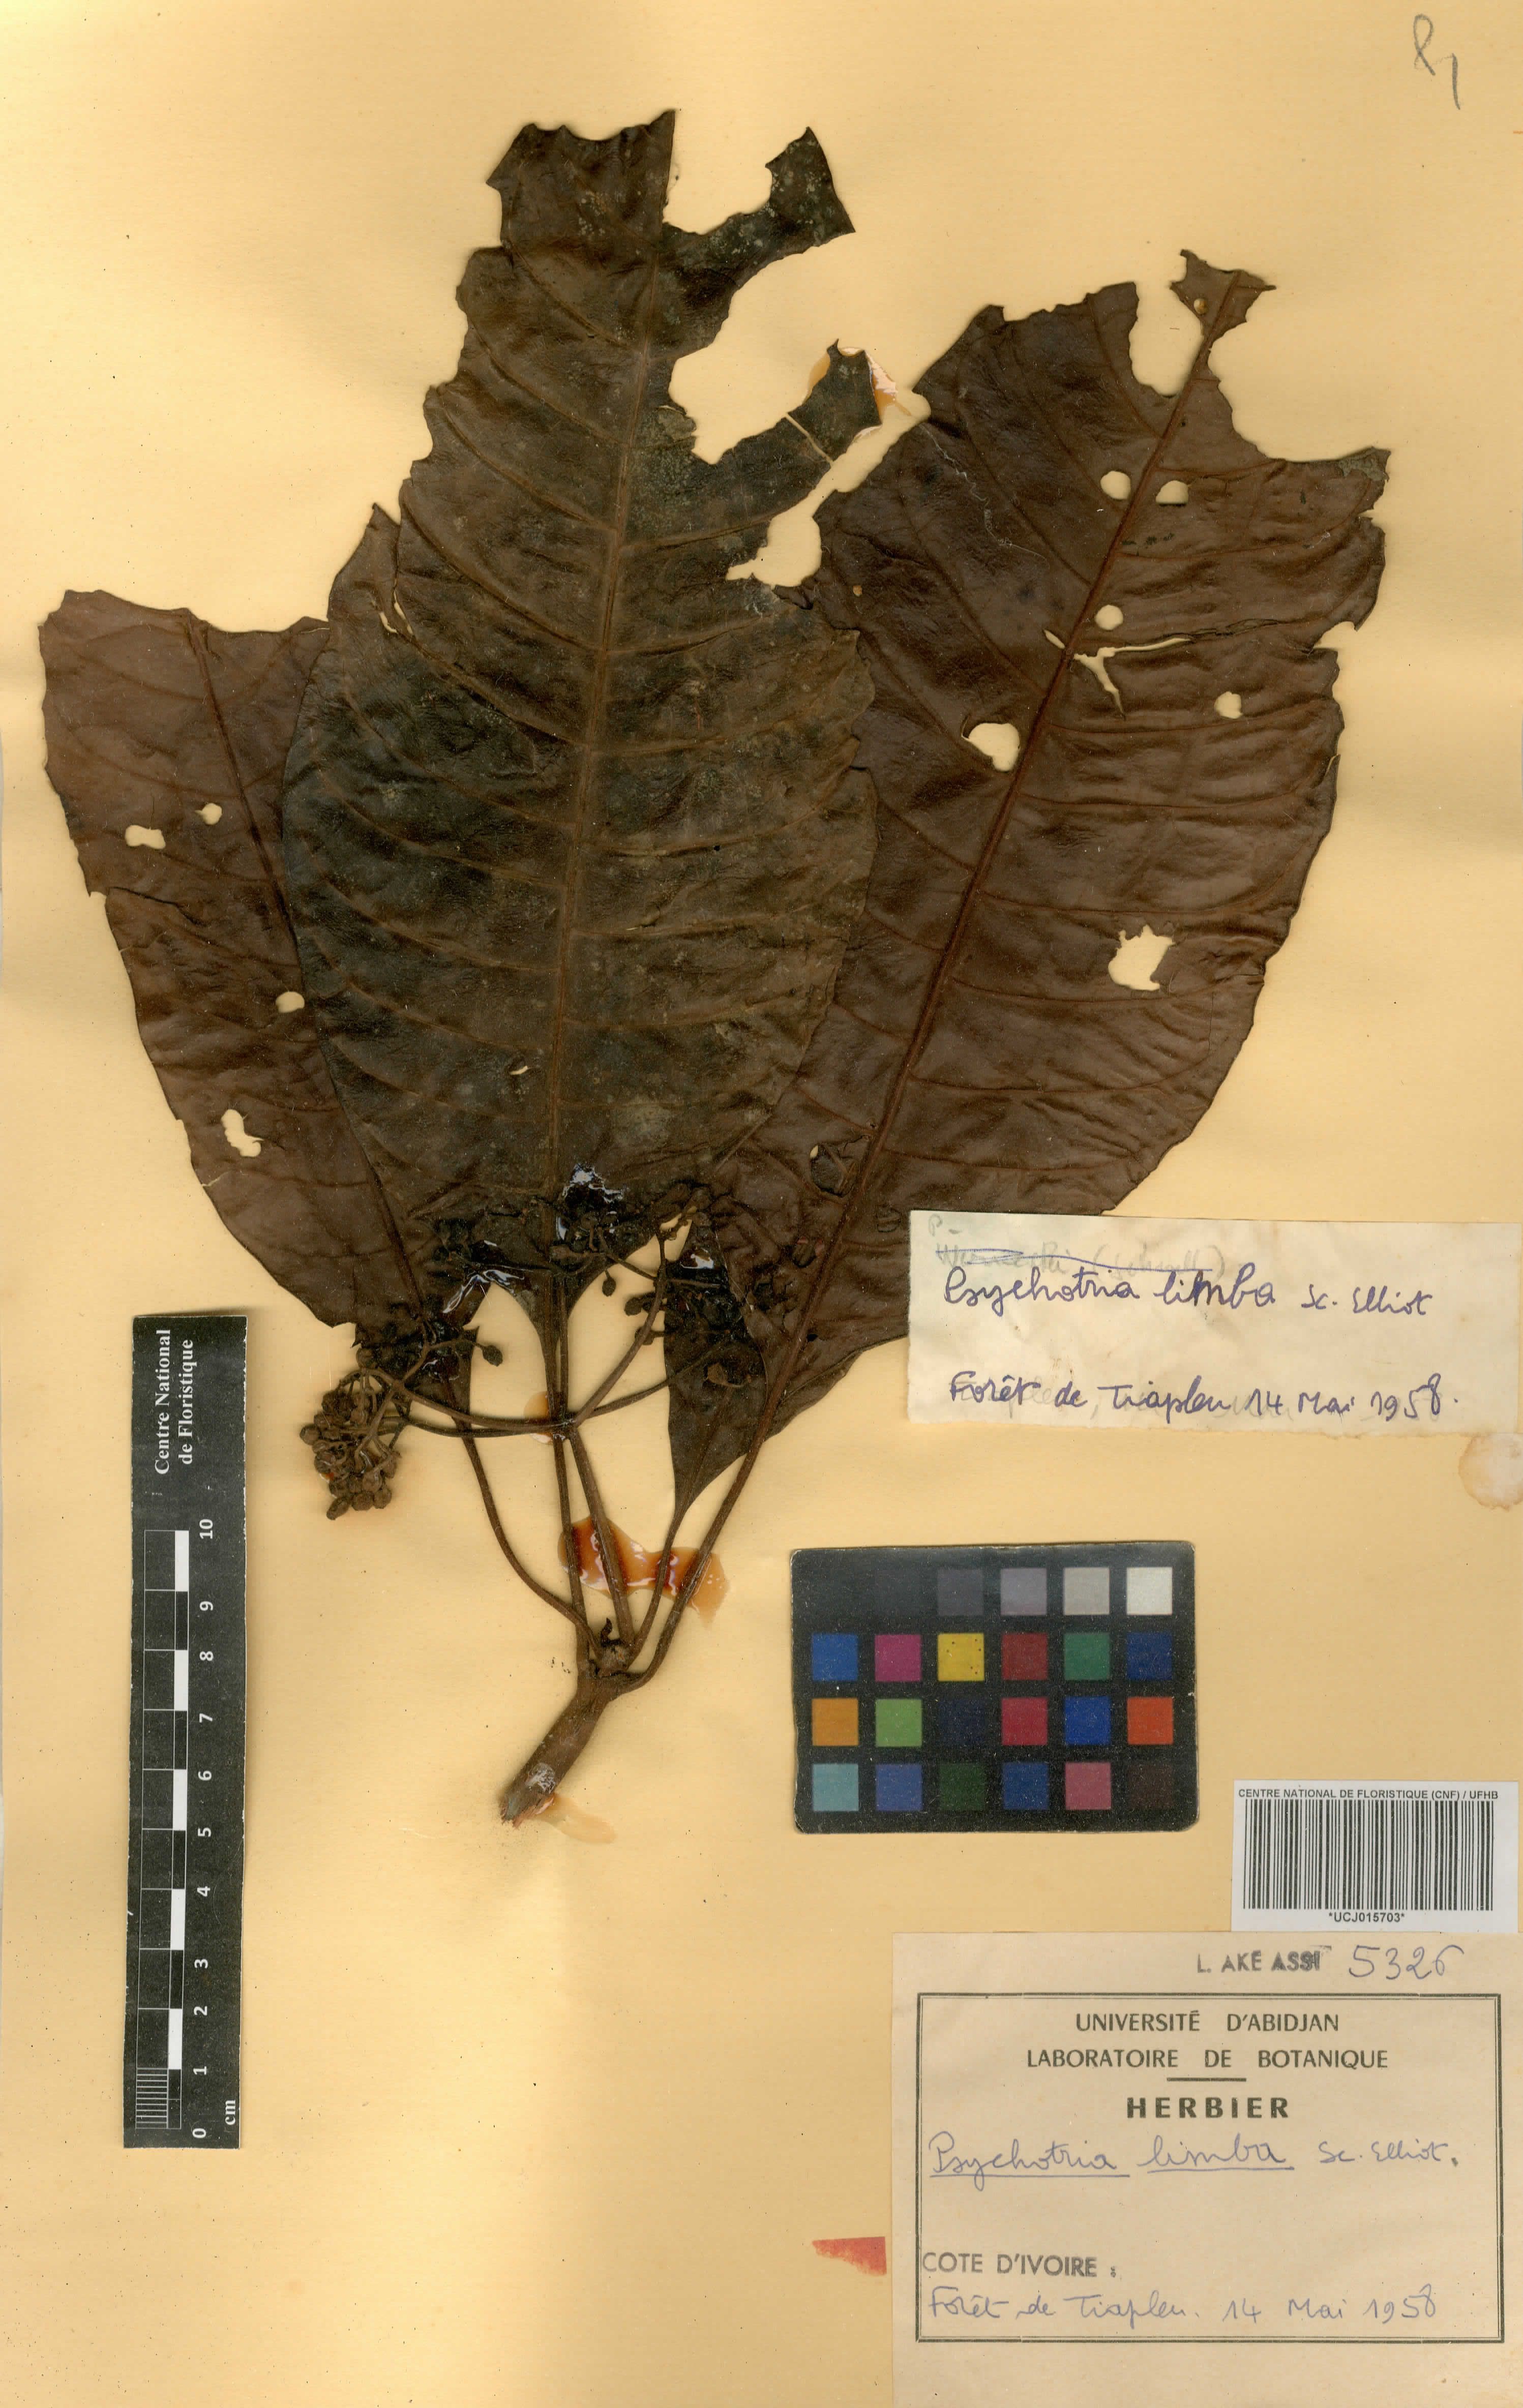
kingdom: Plantae
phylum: Tracheophyta
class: Magnoliopsida
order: Gentianales
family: Rubiaceae
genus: Psychotria
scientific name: Psychotria limba
